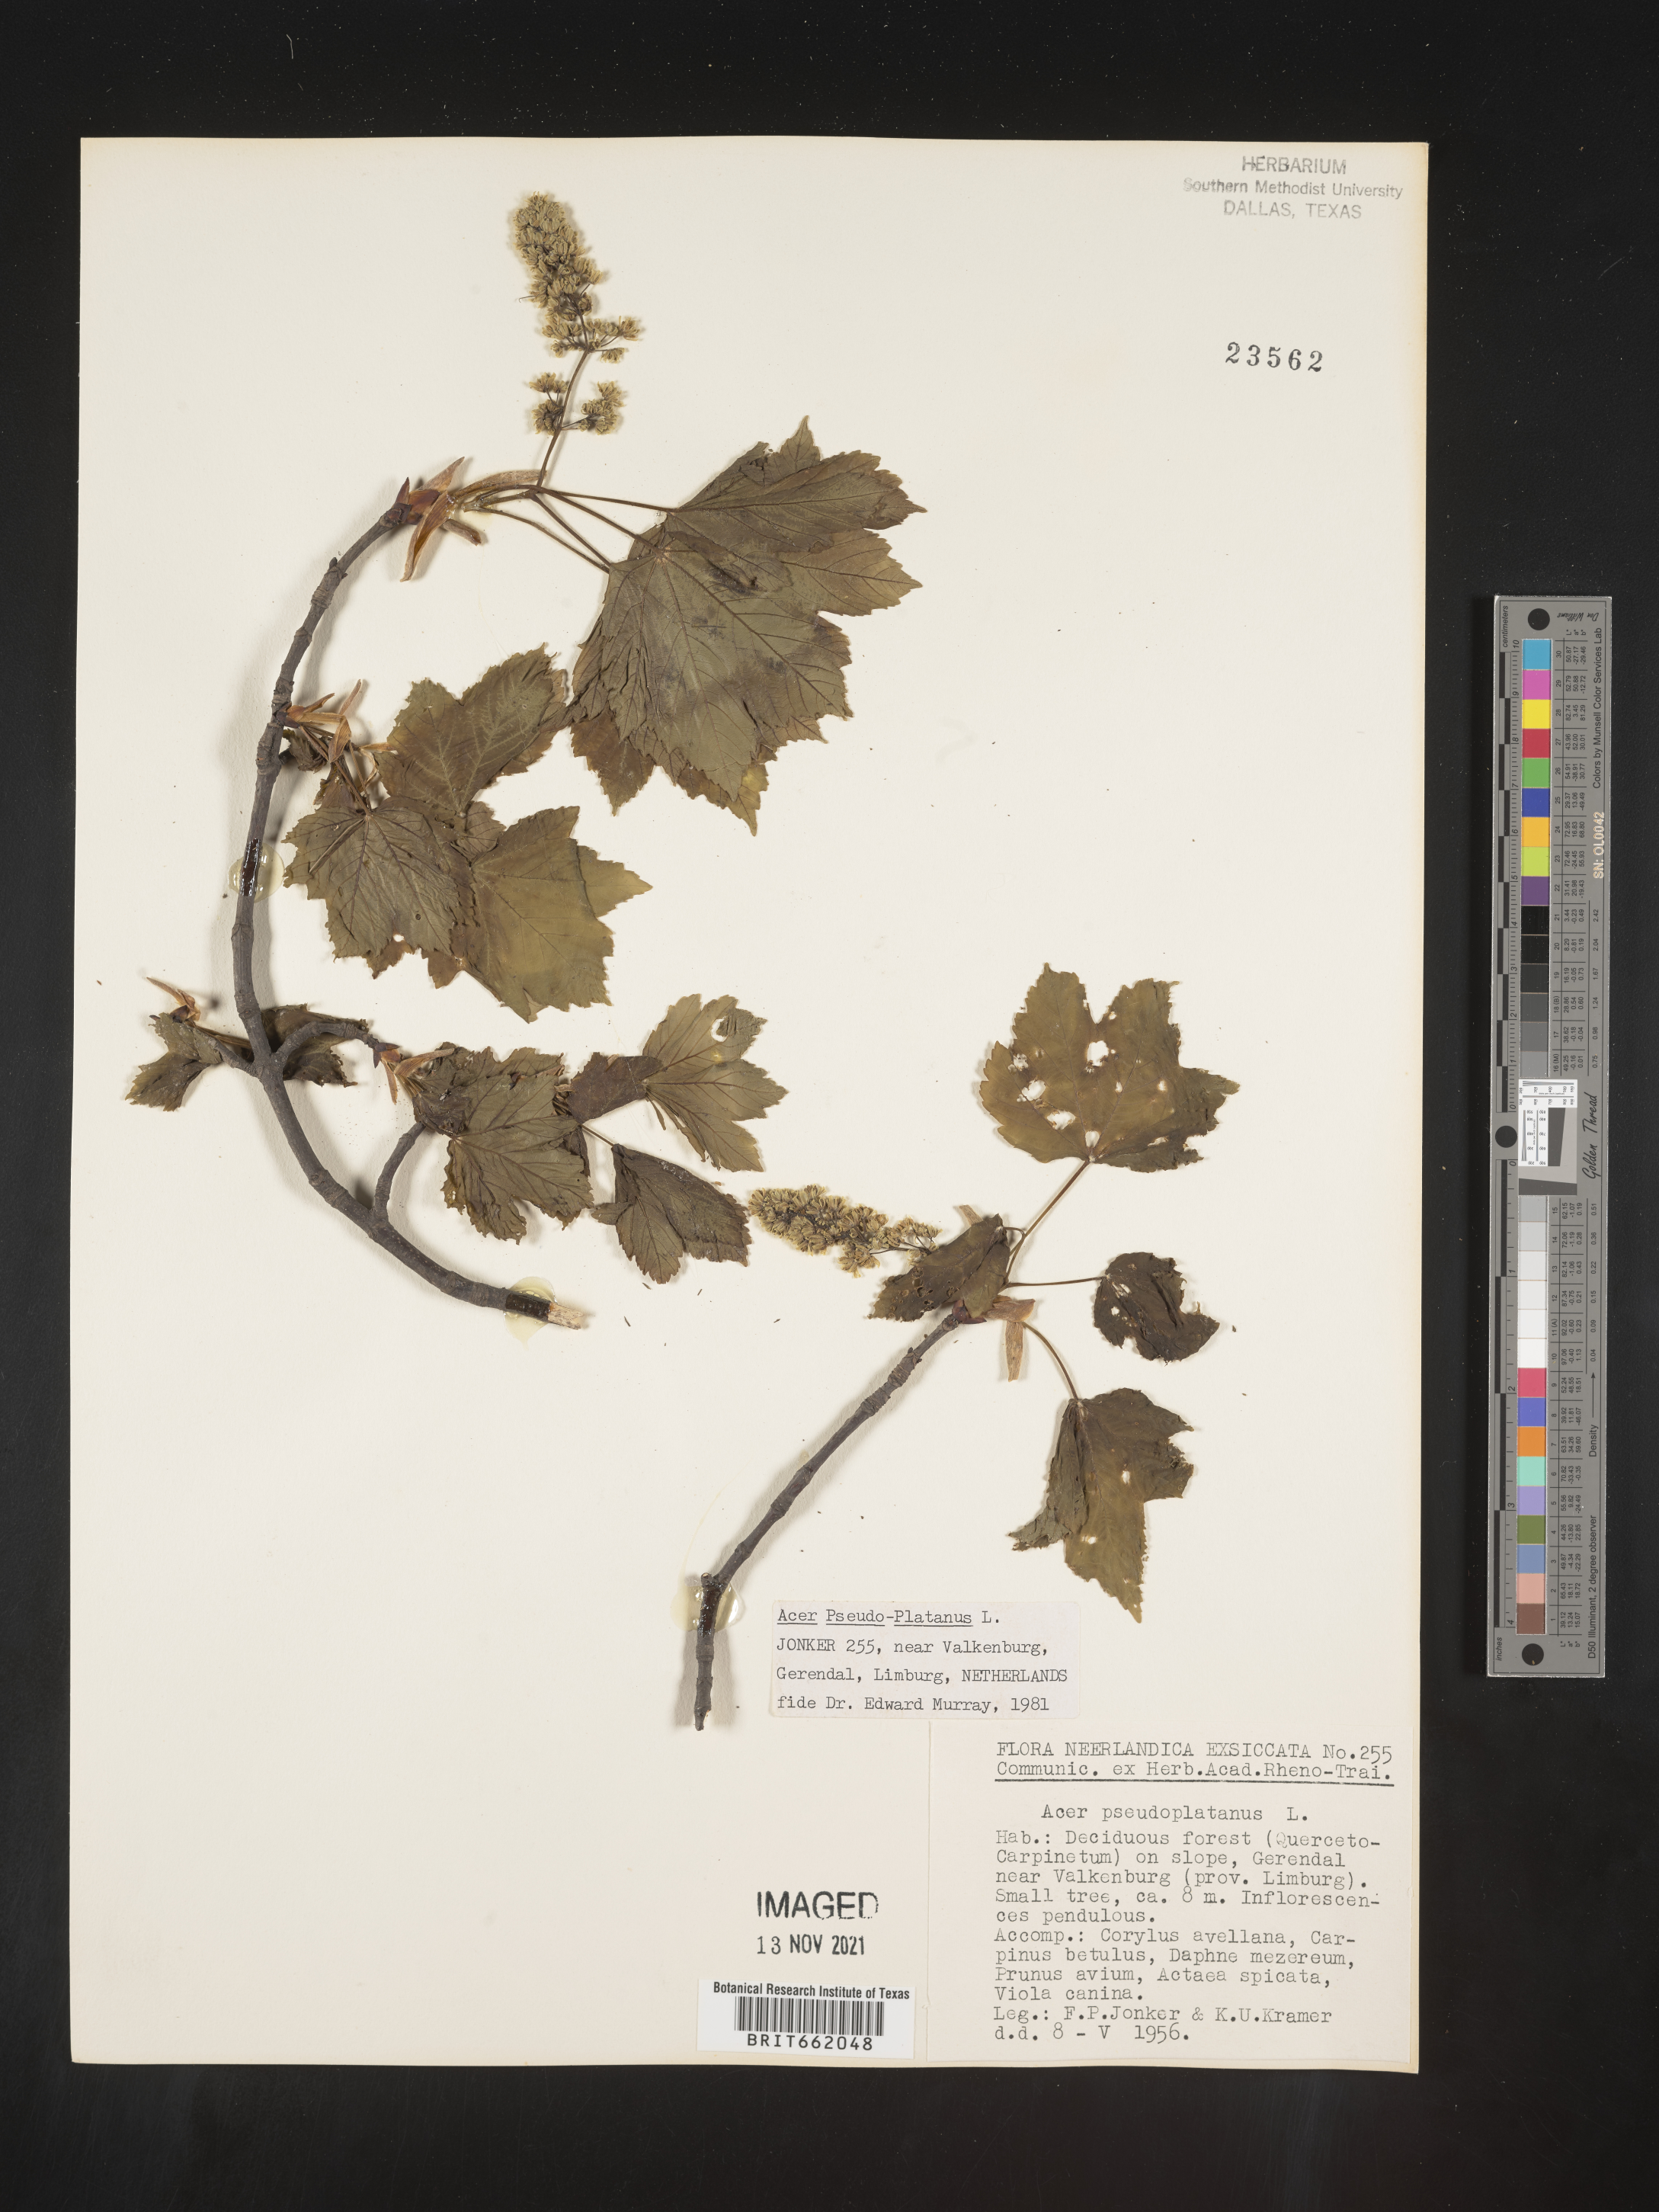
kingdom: Plantae
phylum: Tracheophyta
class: Magnoliopsida
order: Sapindales
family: Sapindaceae
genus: Acer
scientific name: Acer
